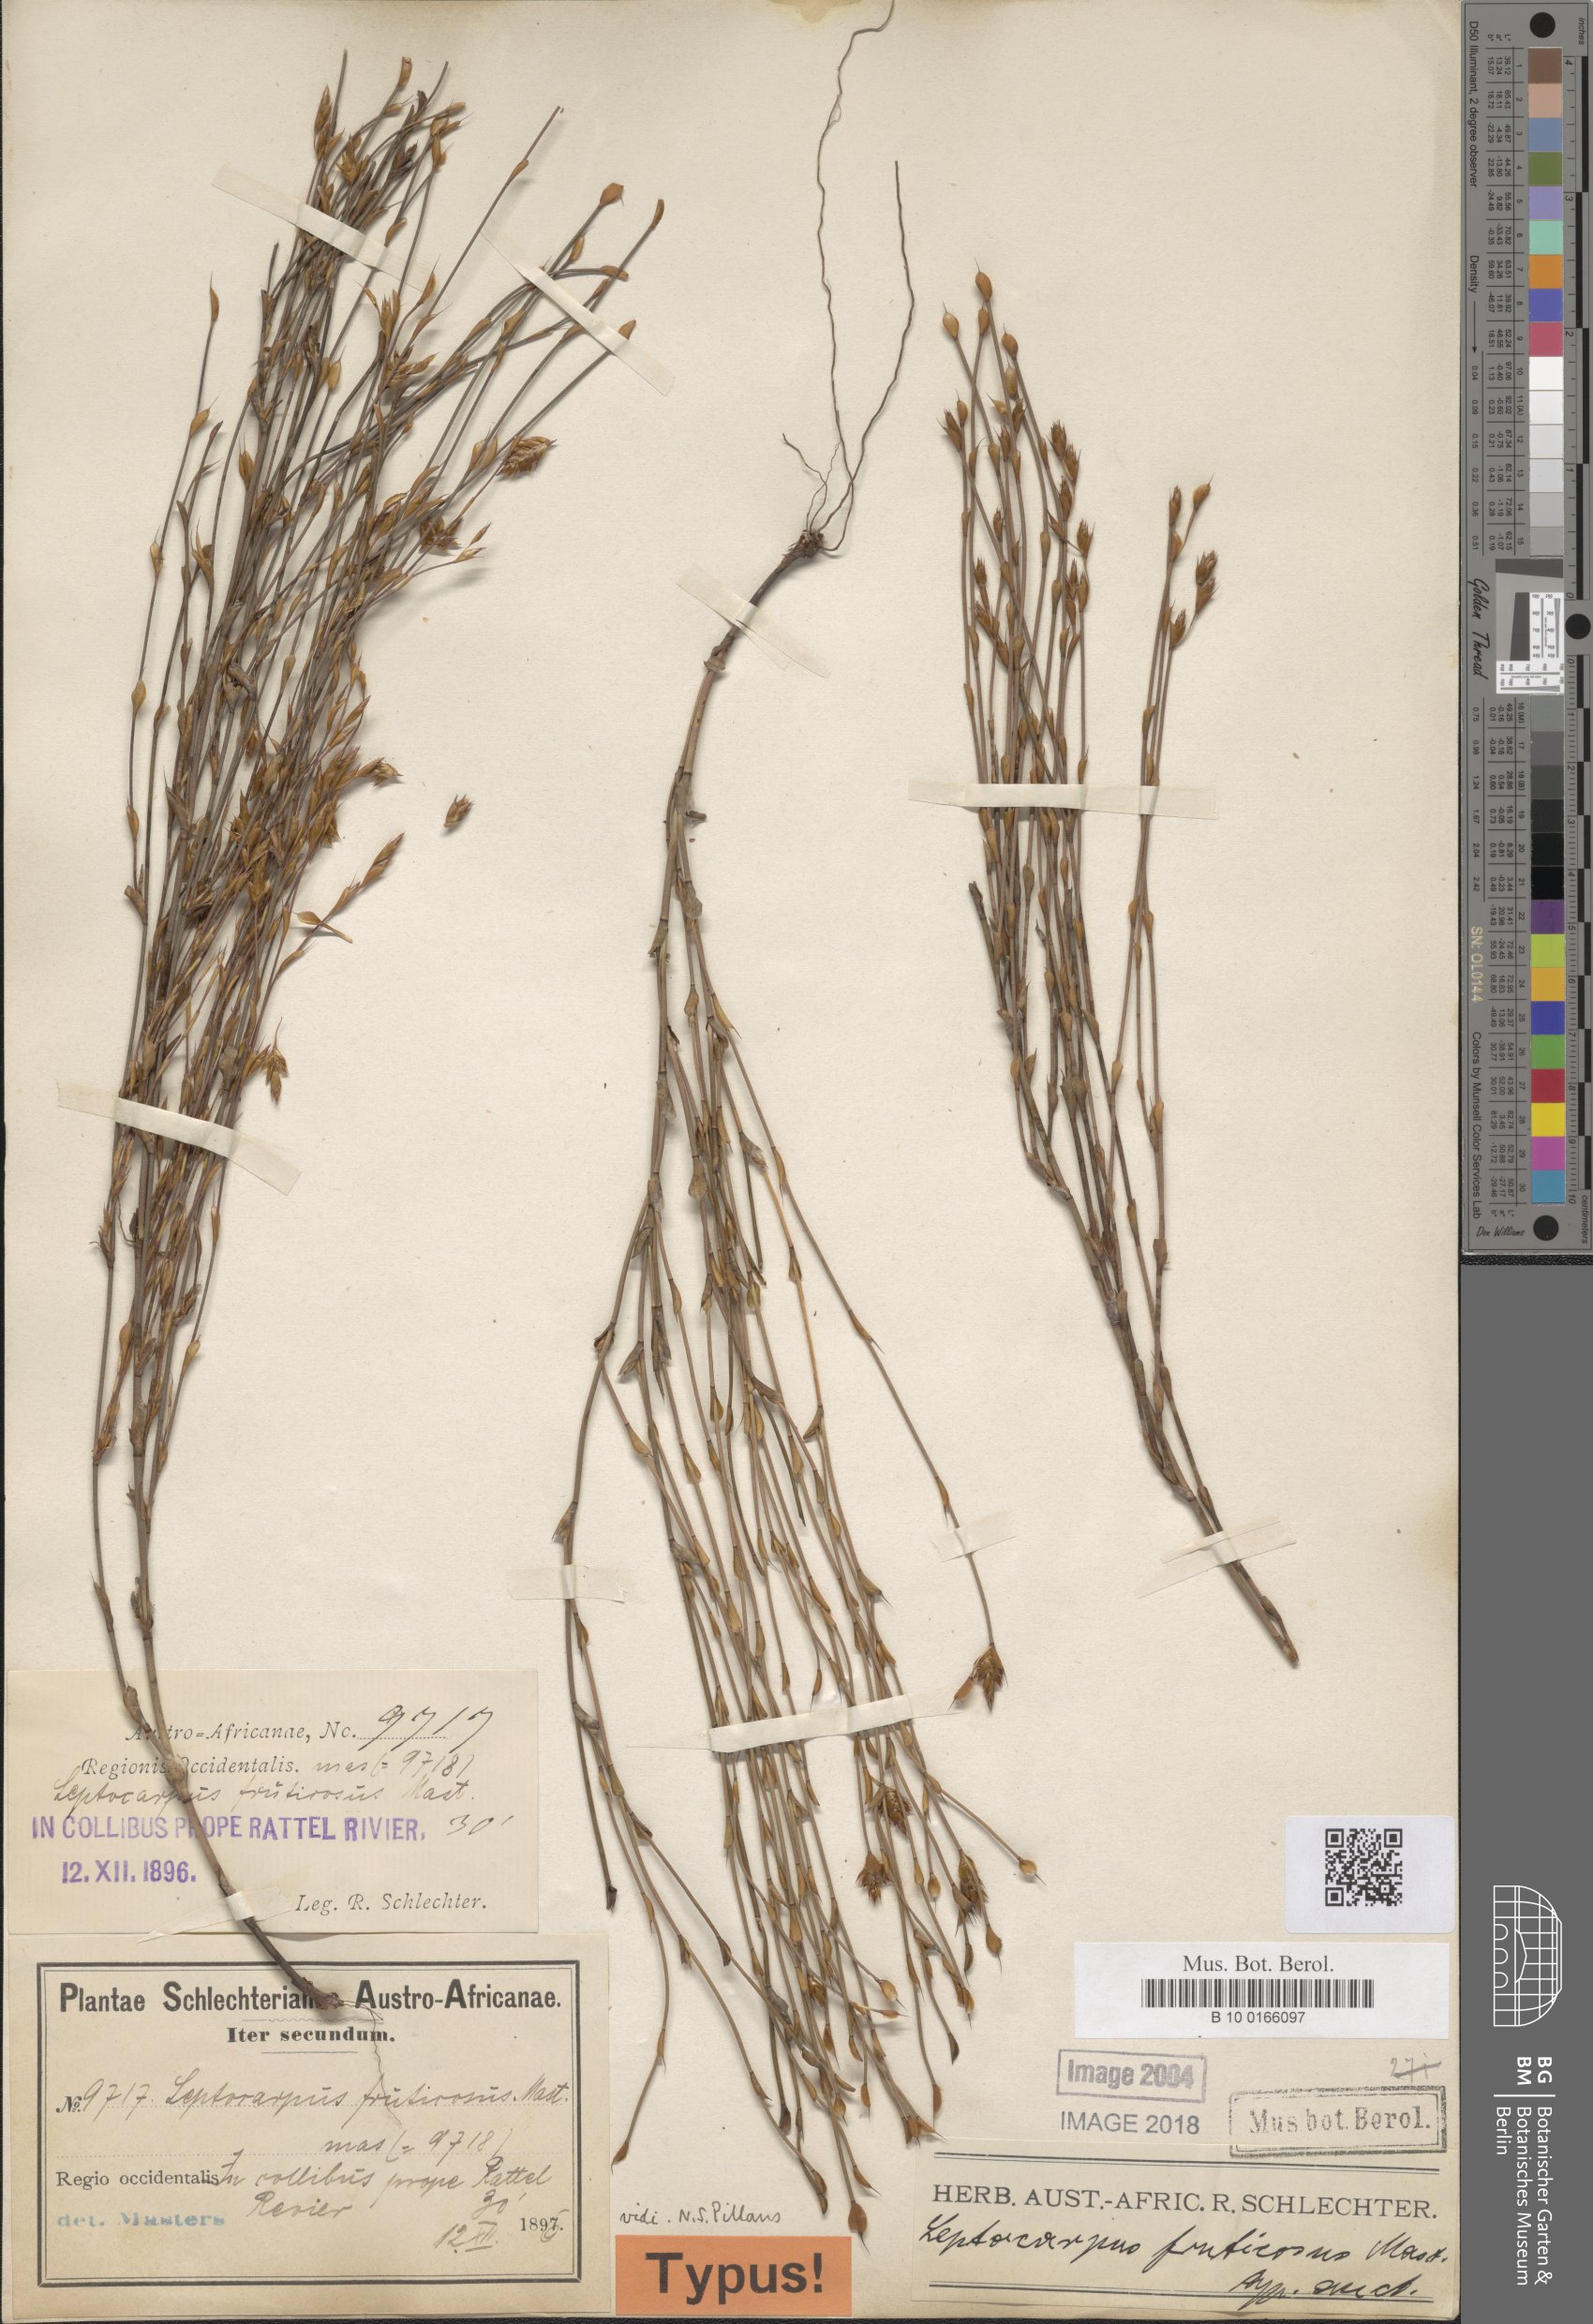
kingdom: Plantae
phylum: Tracheophyta
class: Liliopsida
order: Poales
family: Restionaceae
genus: Restio
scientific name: Restio calcicola
